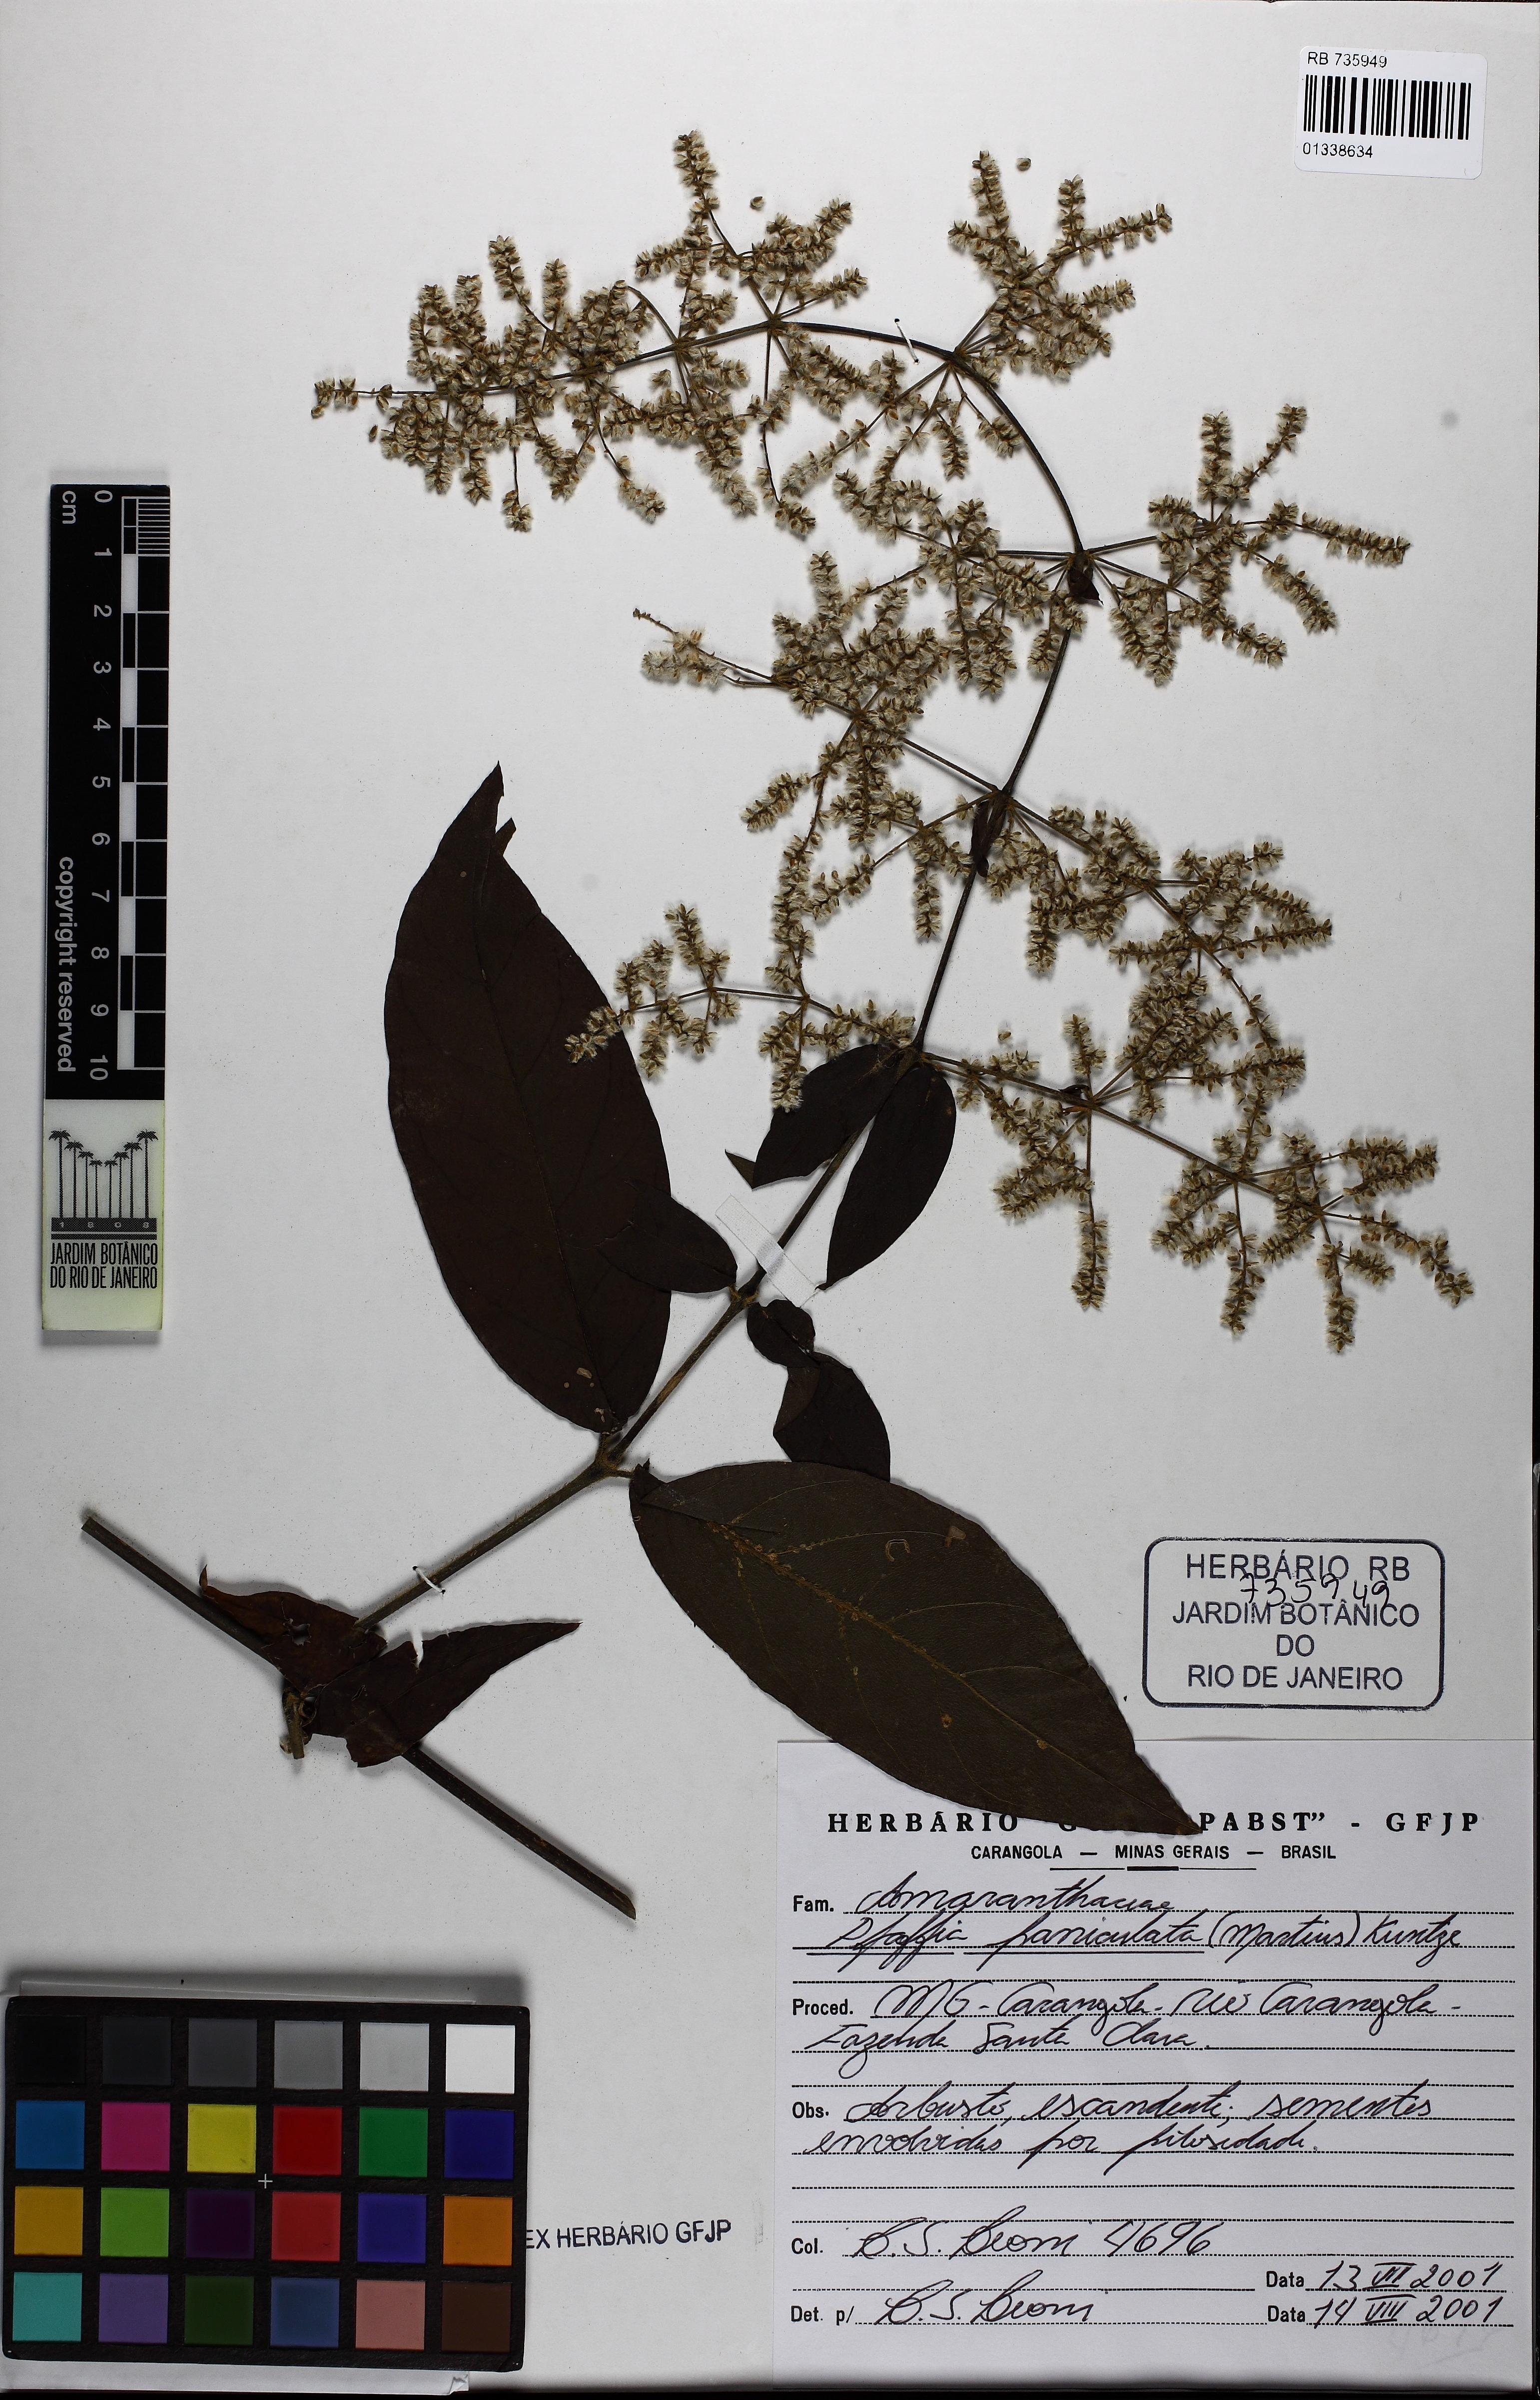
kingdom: Plantae
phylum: Tracheophyta
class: Magnoliopsida
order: Caryophyllales
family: Amaranthaceae
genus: Hebanthe
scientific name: Hebanthe erianthos
